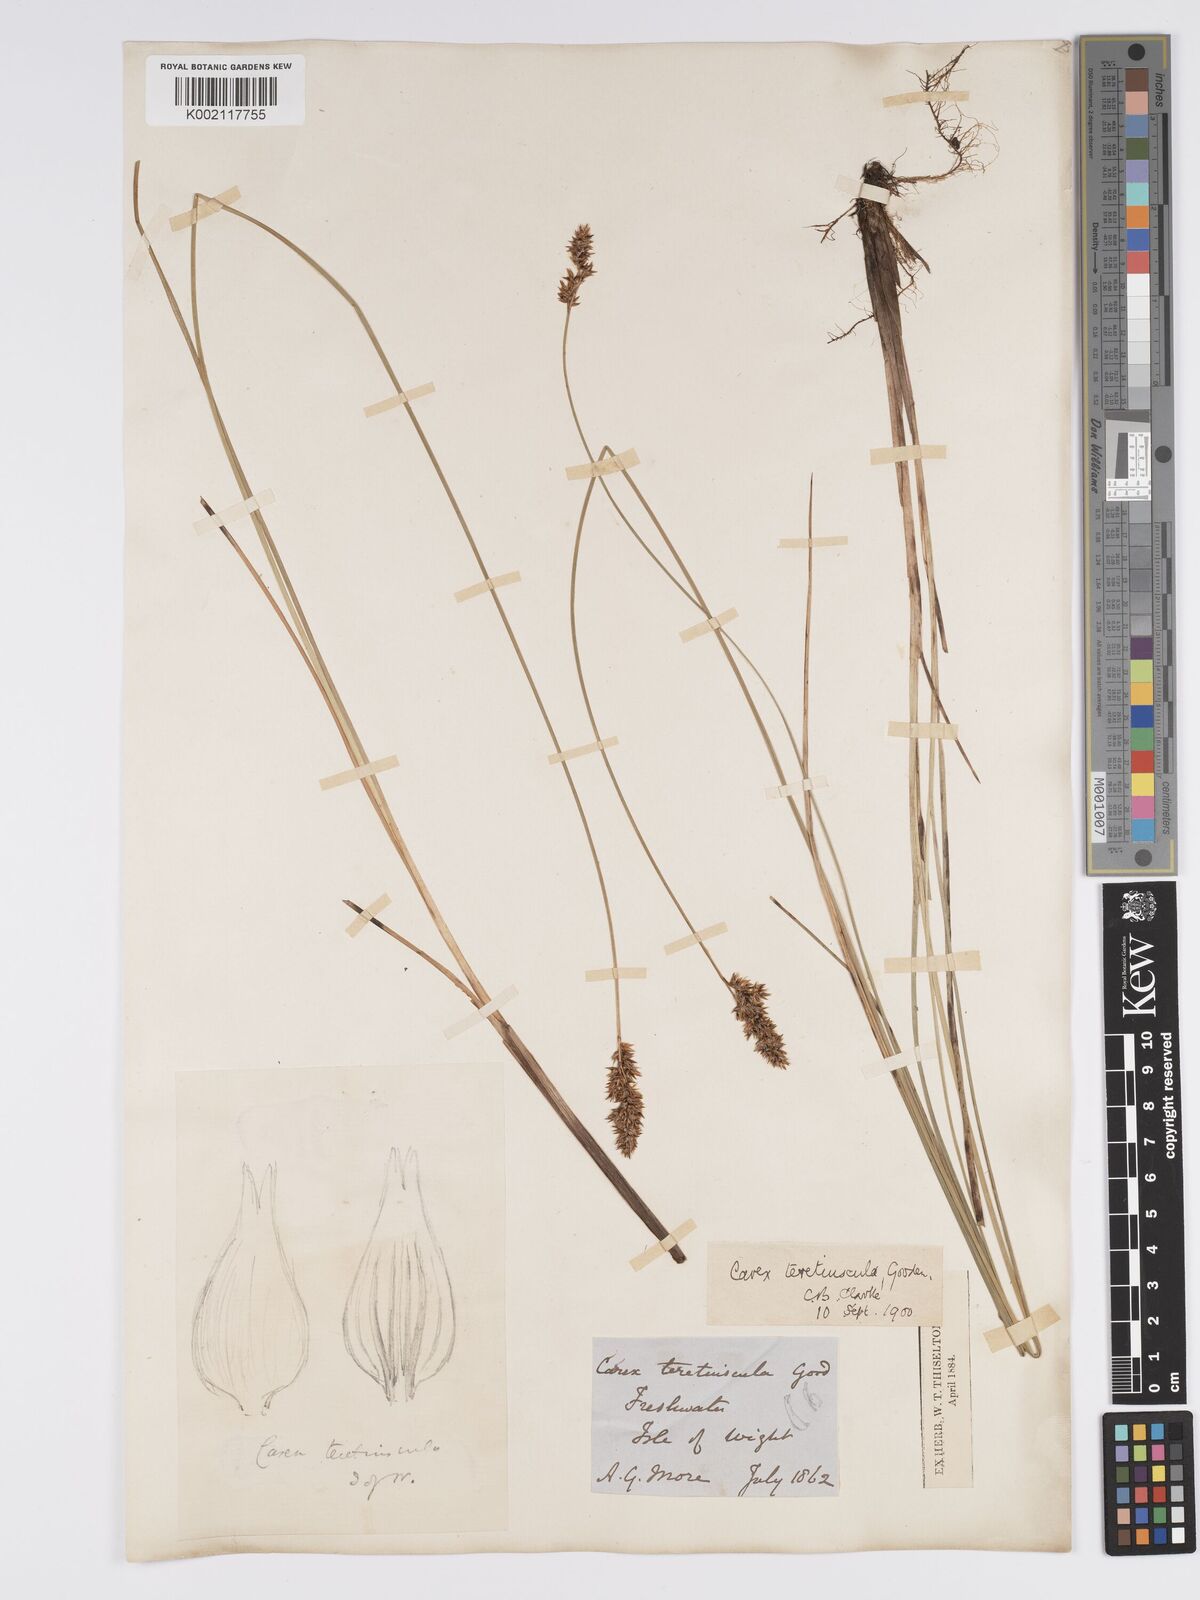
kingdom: Plantae
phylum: Tracheophyta
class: Liliopsida
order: Poales
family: Cyperaceae
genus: Carex
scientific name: Carex diandra
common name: Lesser tussock-sedge
